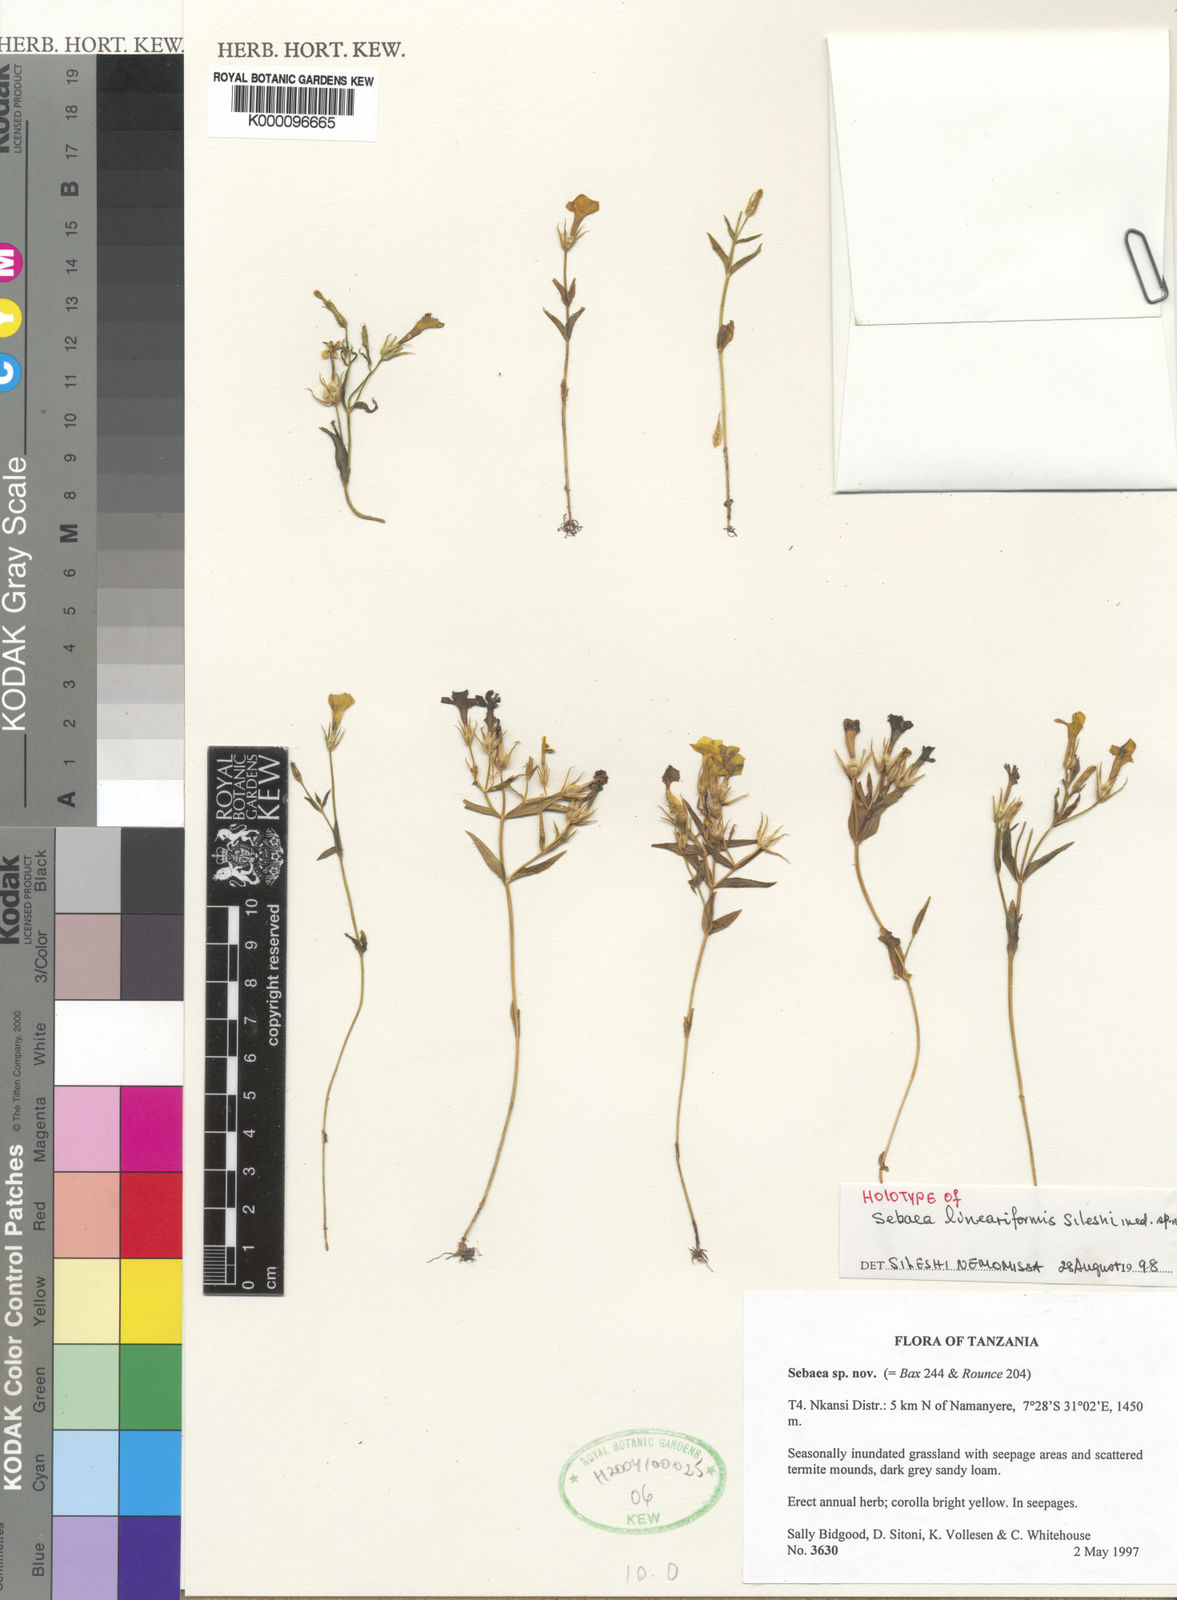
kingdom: Plantae
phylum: Tracheophyta
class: Magnoliopsida
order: Gentianales
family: Gentianaceae
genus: Exochaenium
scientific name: Exochaenium lineariforme
